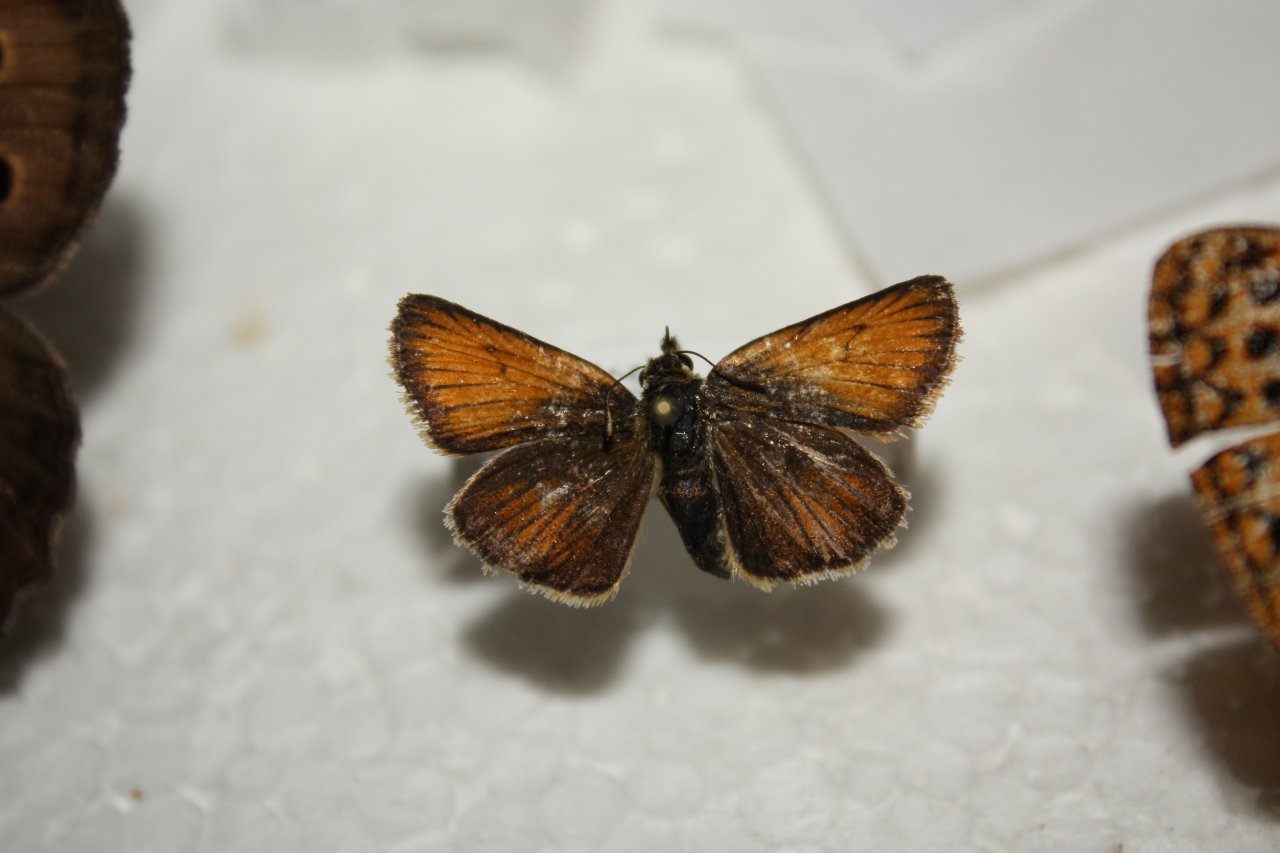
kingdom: Animalia
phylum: Arthropoda
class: Insecta
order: Lepidoptera
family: Hesperiidae
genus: Thymelicus
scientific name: Thymelicus lineola
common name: European Skipper
